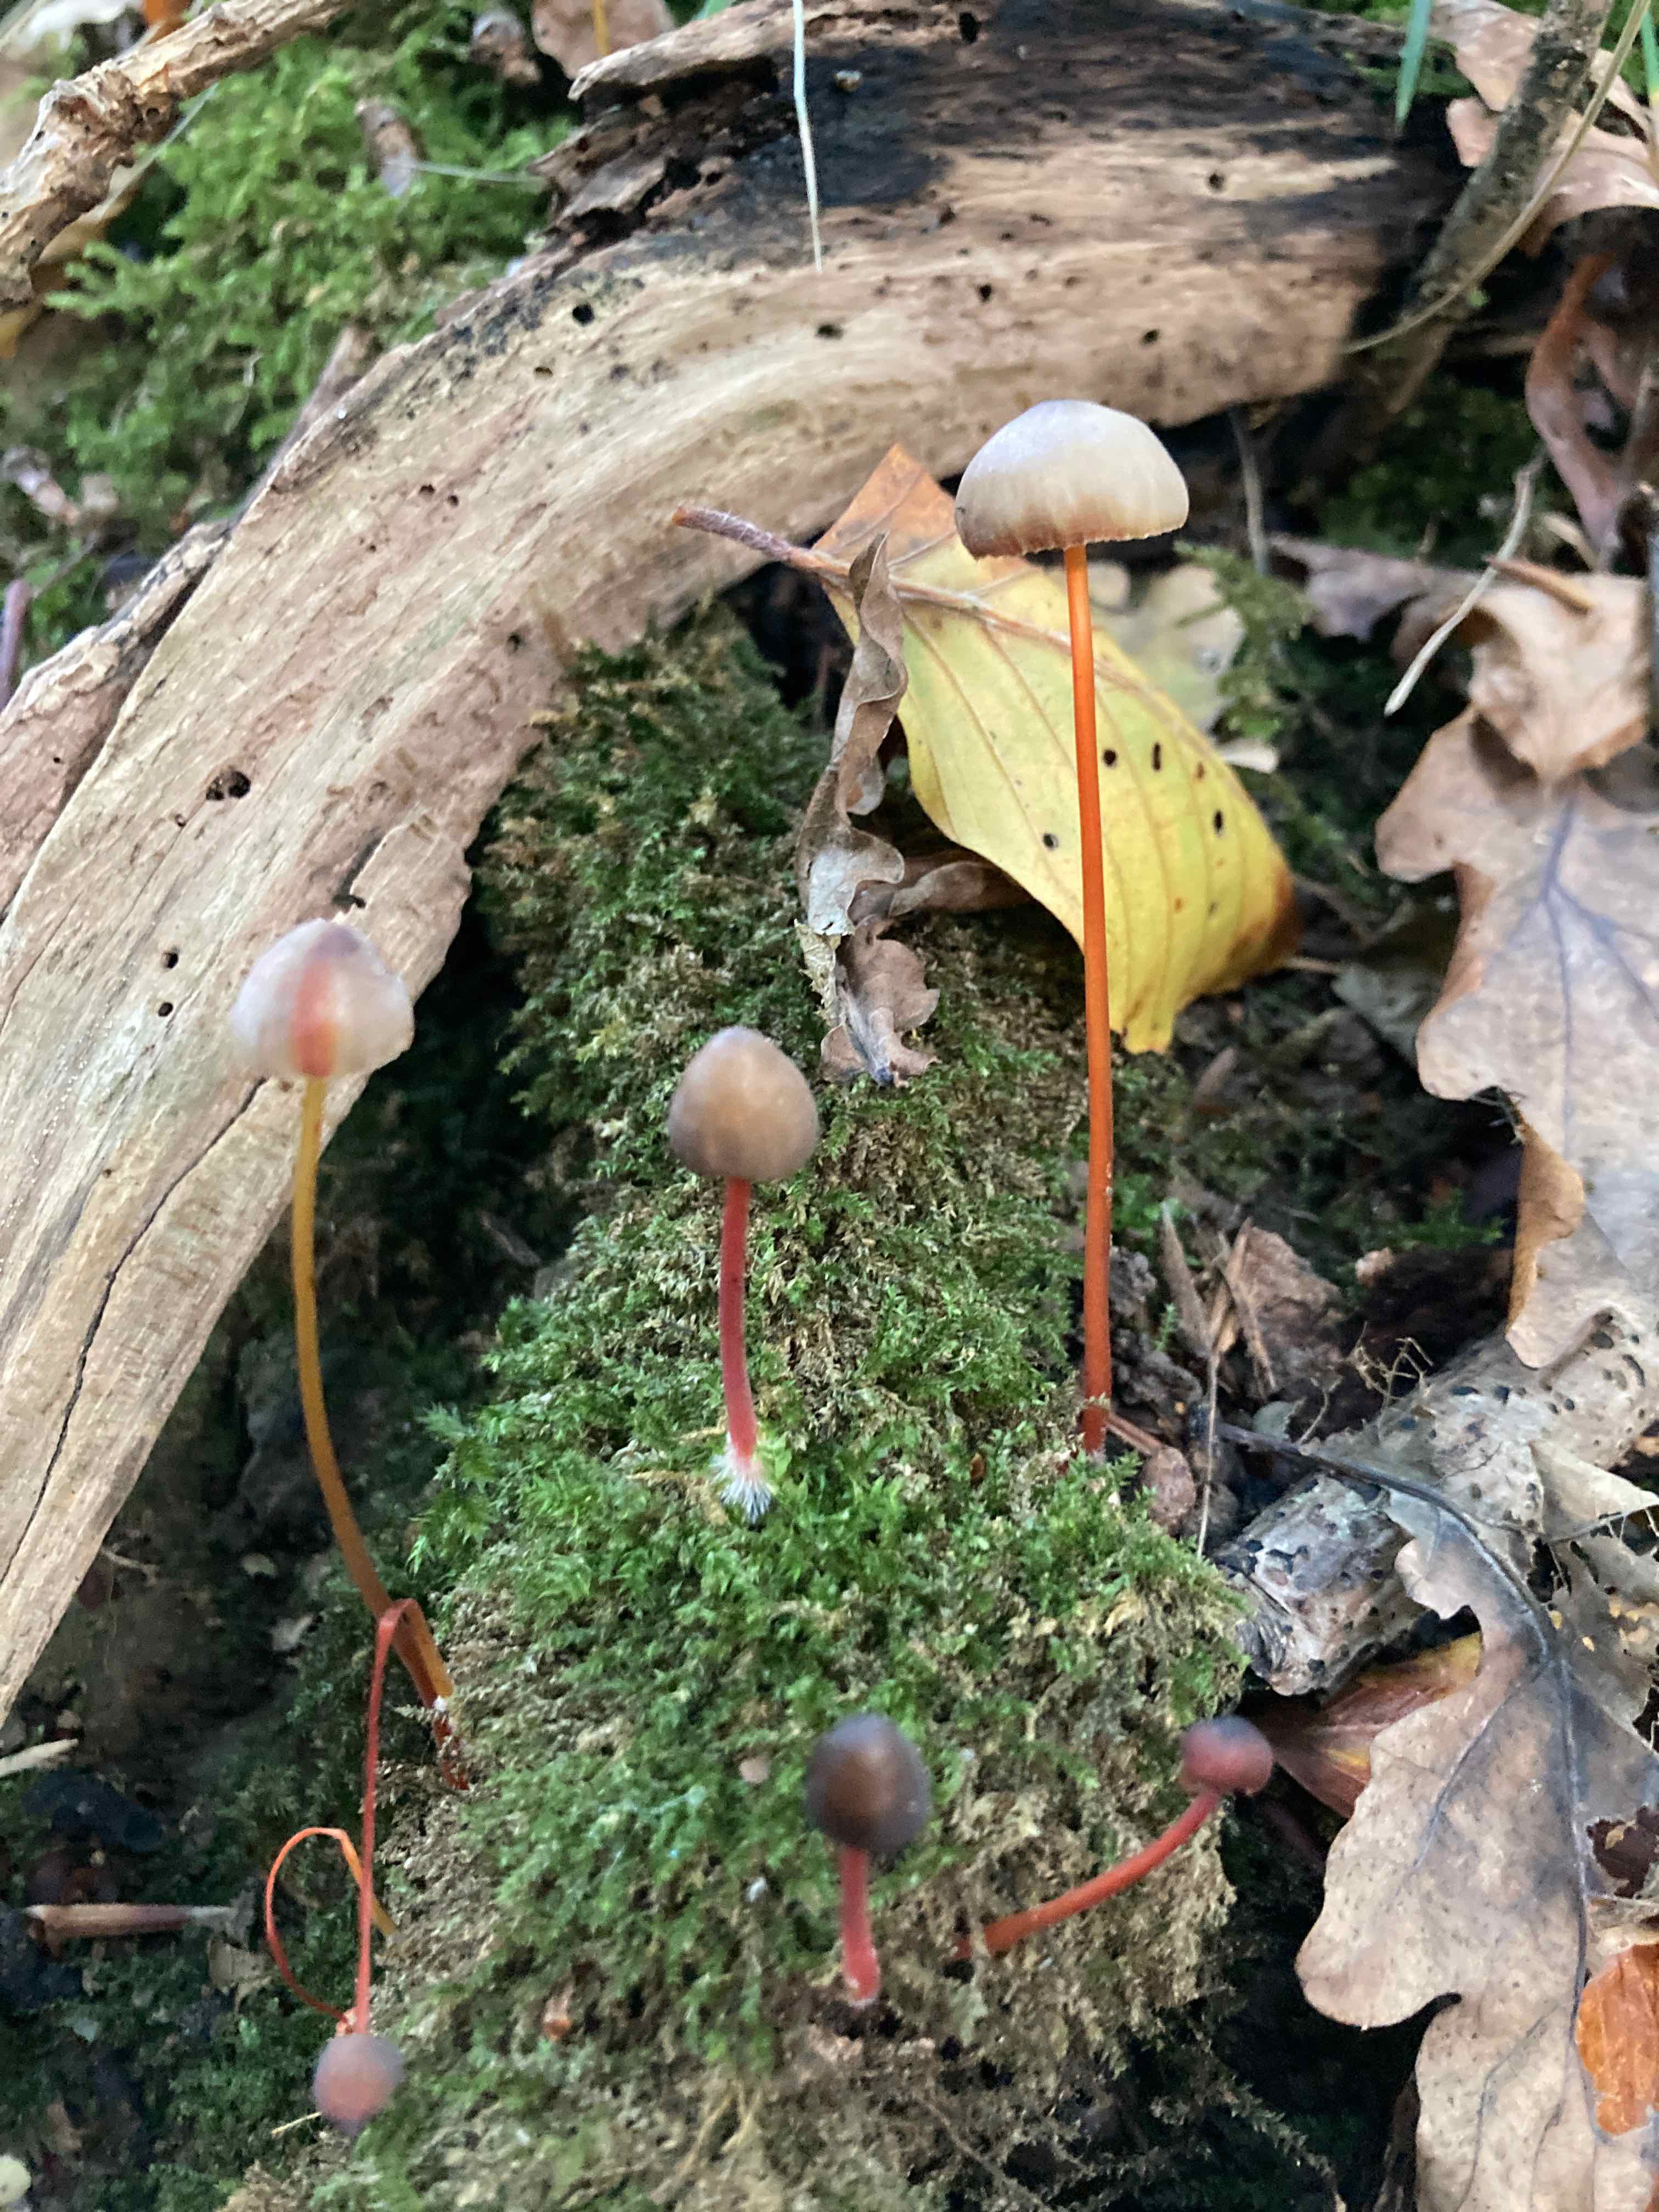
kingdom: Fungi
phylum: Basidiomycota
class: Agaricomycetes
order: Agaricales
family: Mycenaceae
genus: Mycena
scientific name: Mycena crocata
